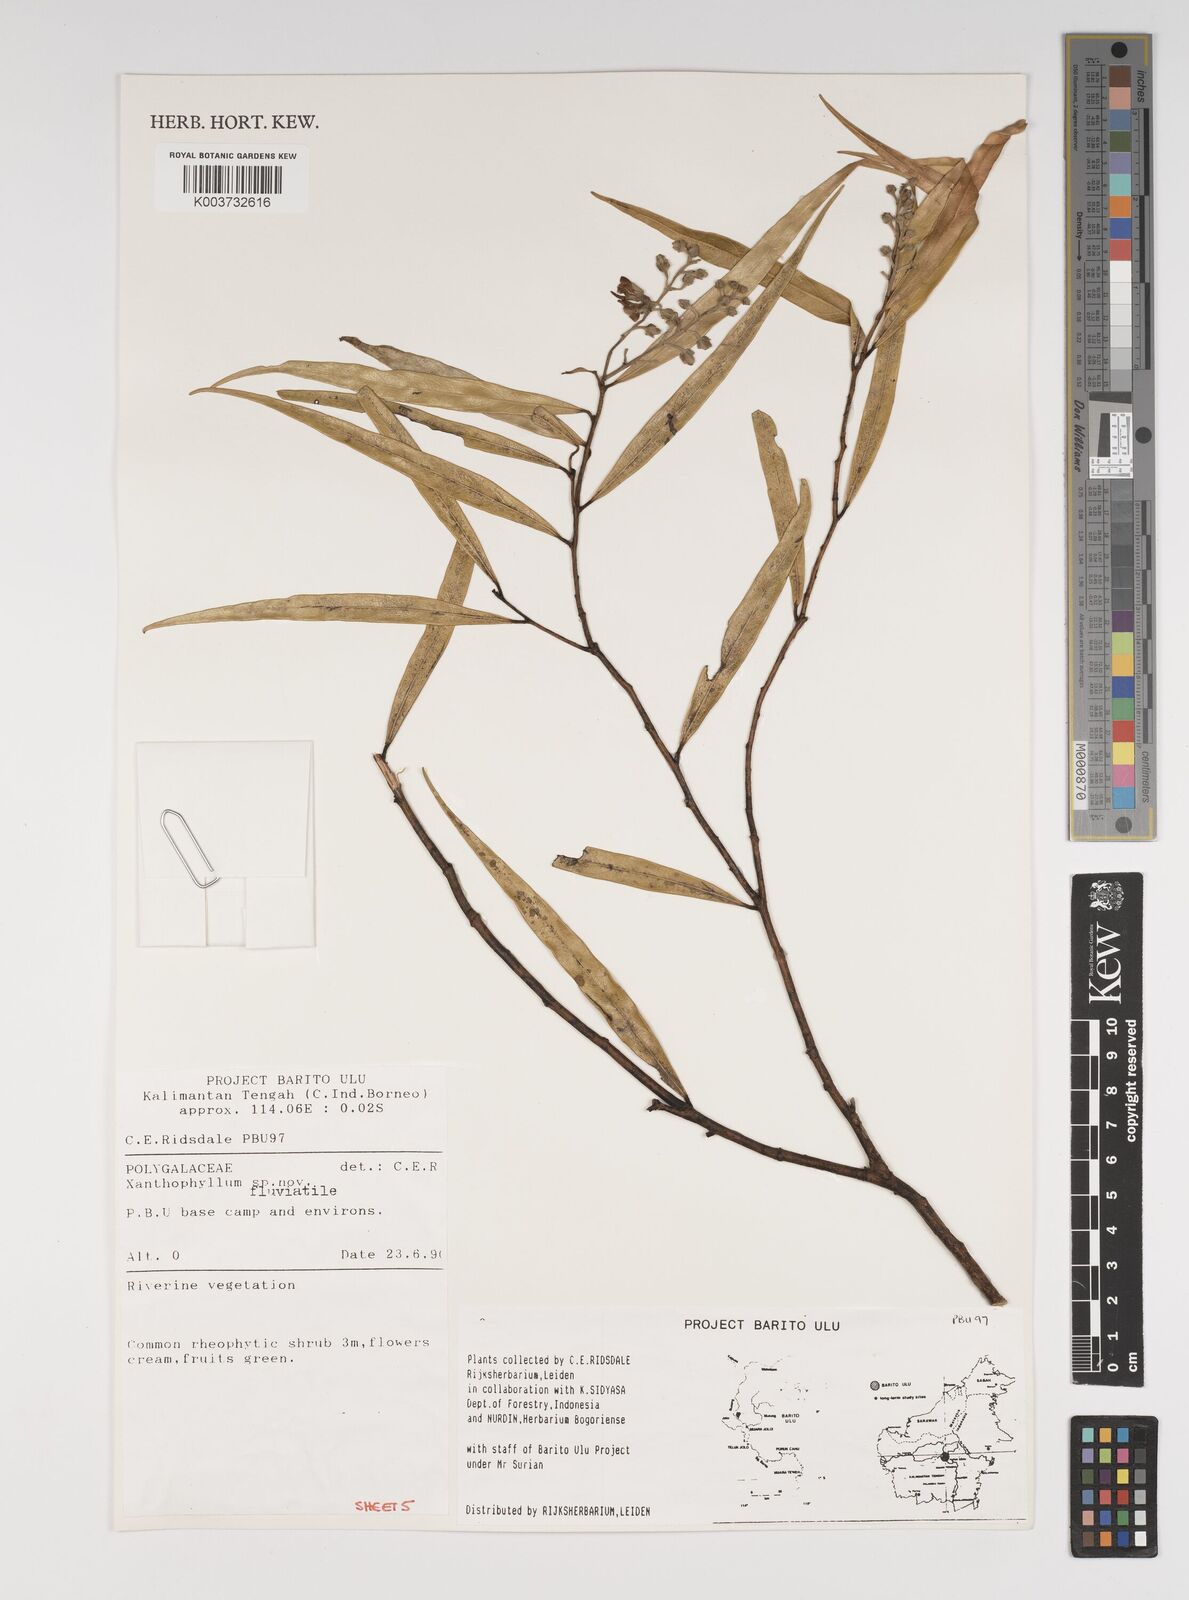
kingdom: Plantae
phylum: Tracheophyta
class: Magnoliopsida
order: Fabales
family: Polygalaceae
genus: Xanthophyllum
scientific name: Xanthophyllum
